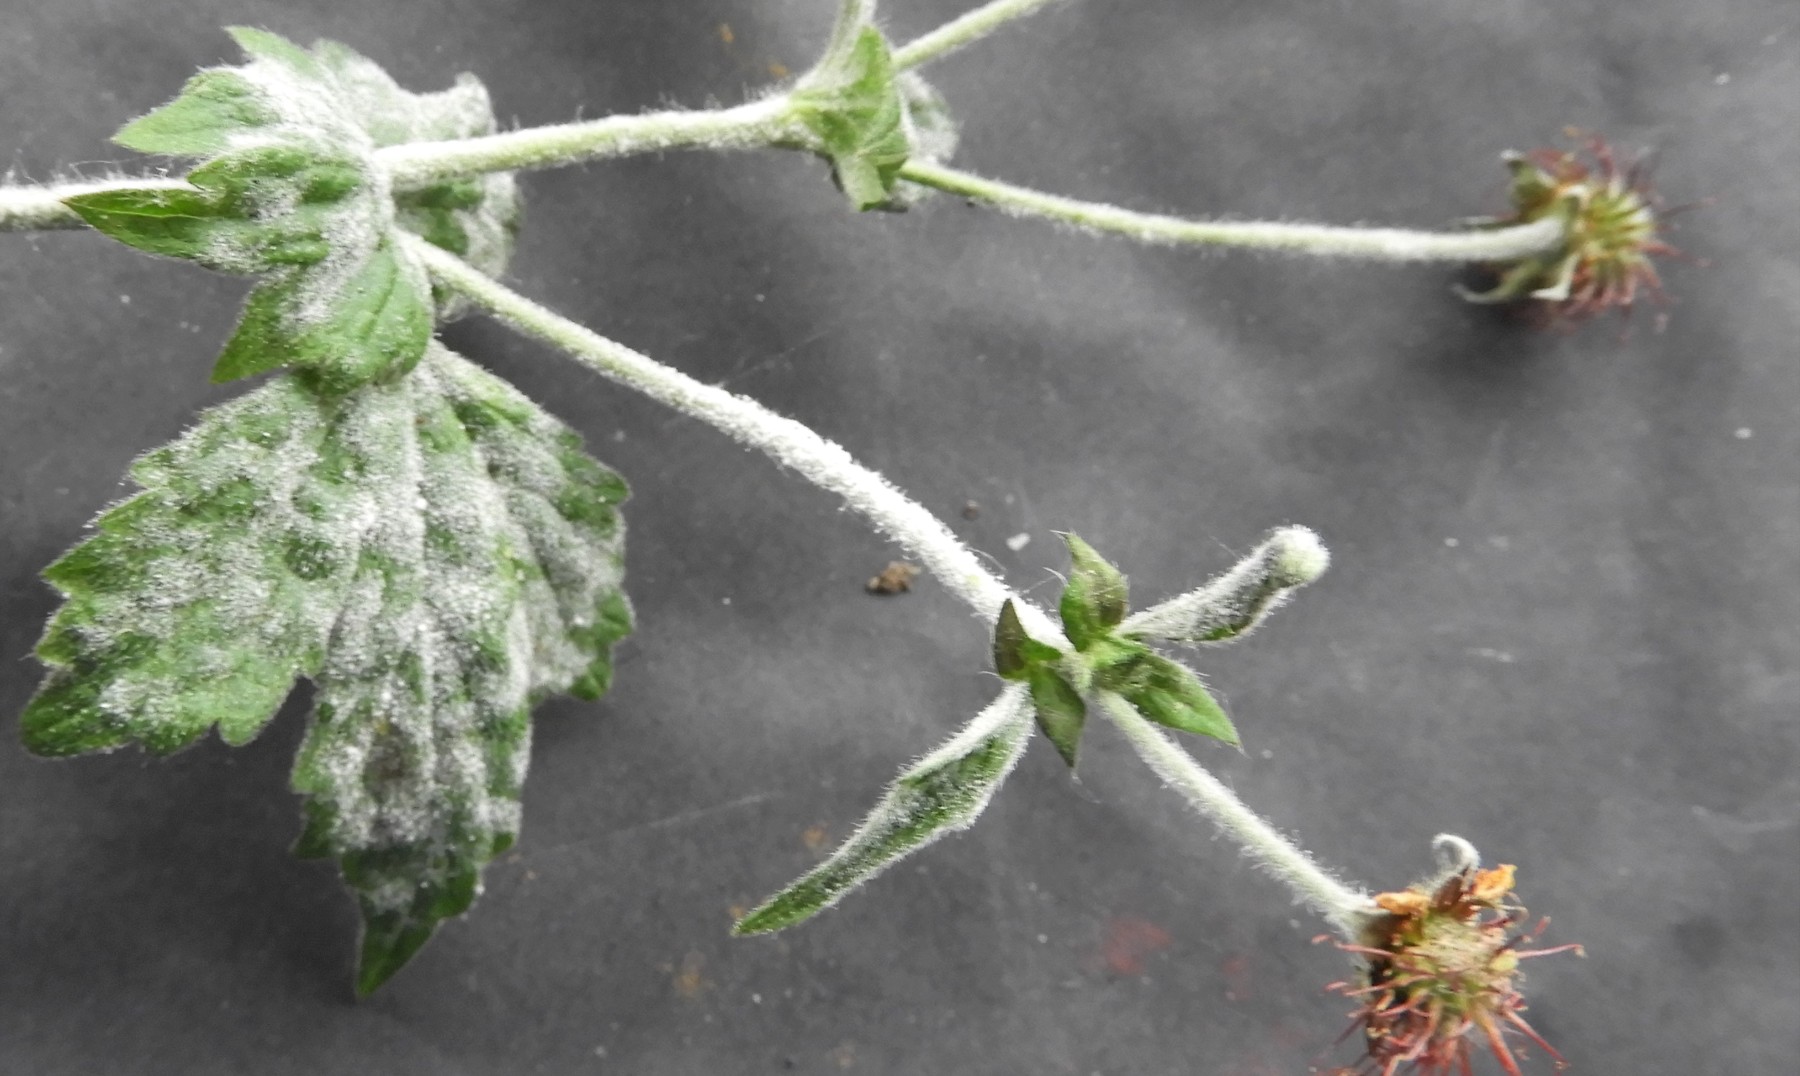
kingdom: Fungi
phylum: Ascomycota
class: Leotiomycetes
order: Helotiales
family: Erysiphaceae
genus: Podosphaera
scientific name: Podosphaera aphanis
